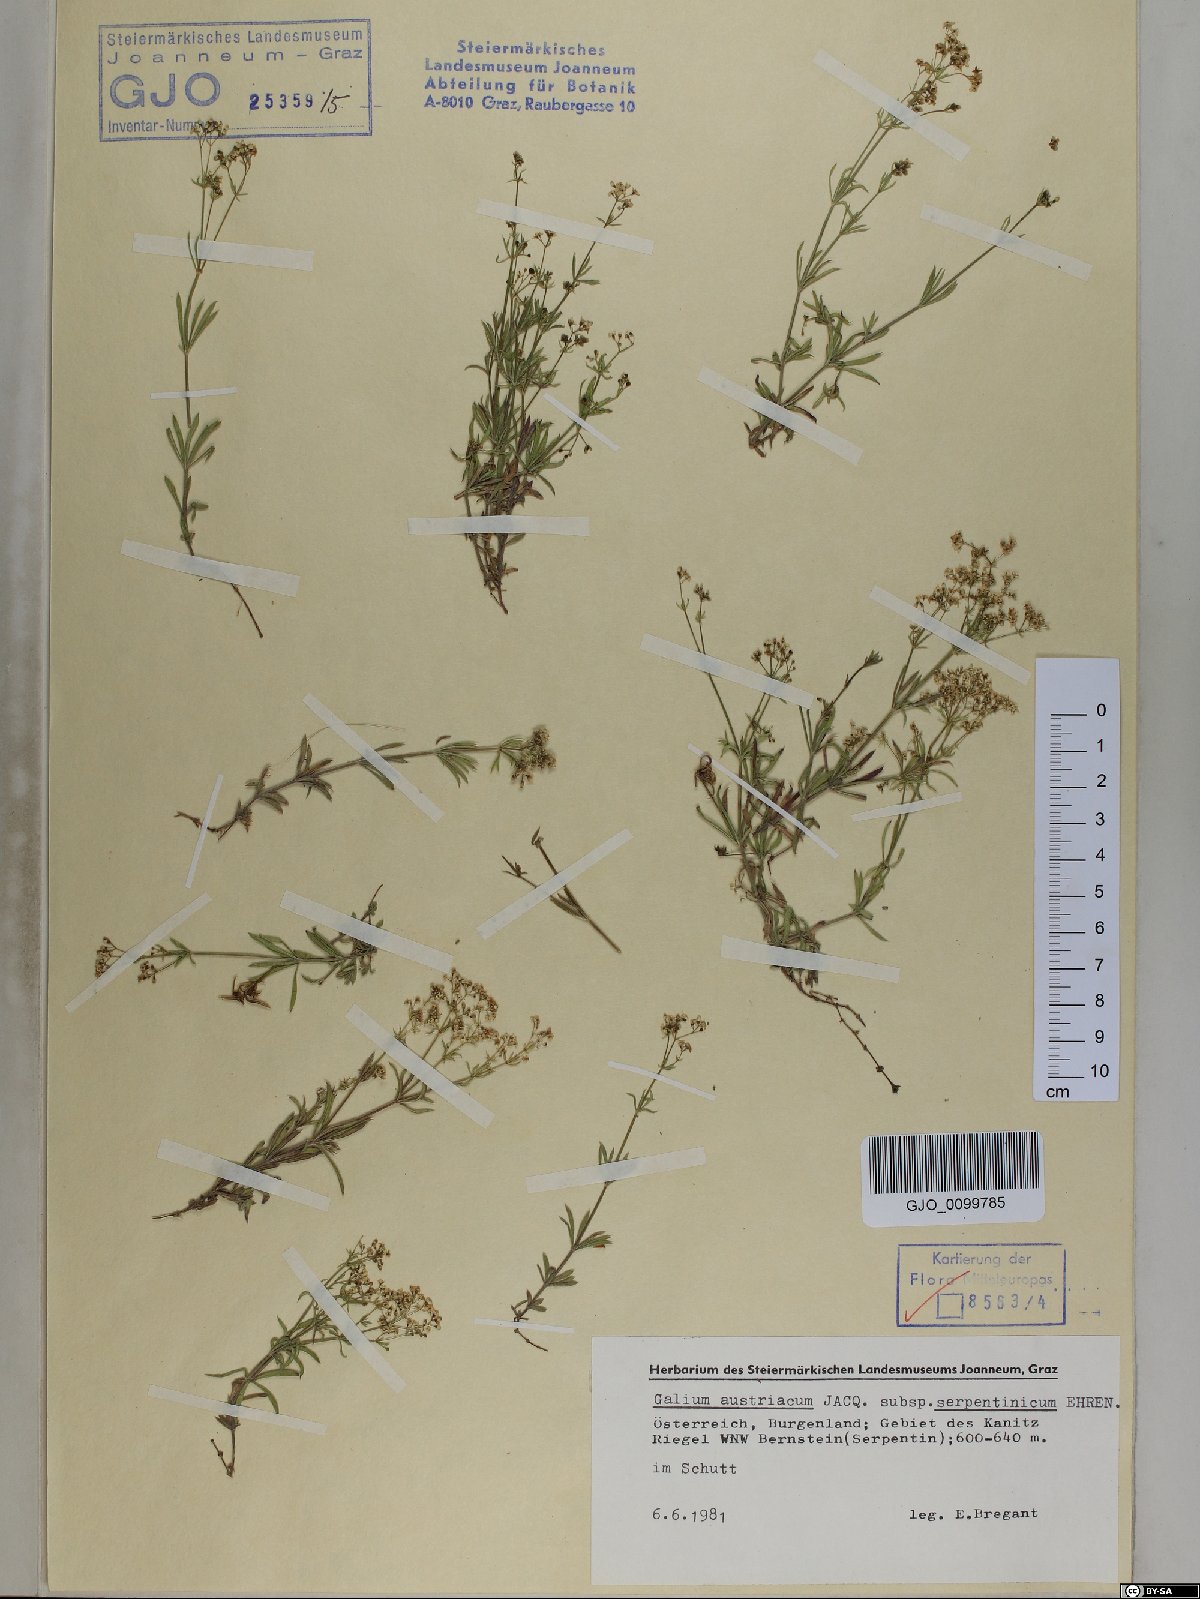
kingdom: Plantae
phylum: Tracheophyta
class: Magnoliopsida
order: Gentianales
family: Rubiaceae
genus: Galium
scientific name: Galium austriacum
